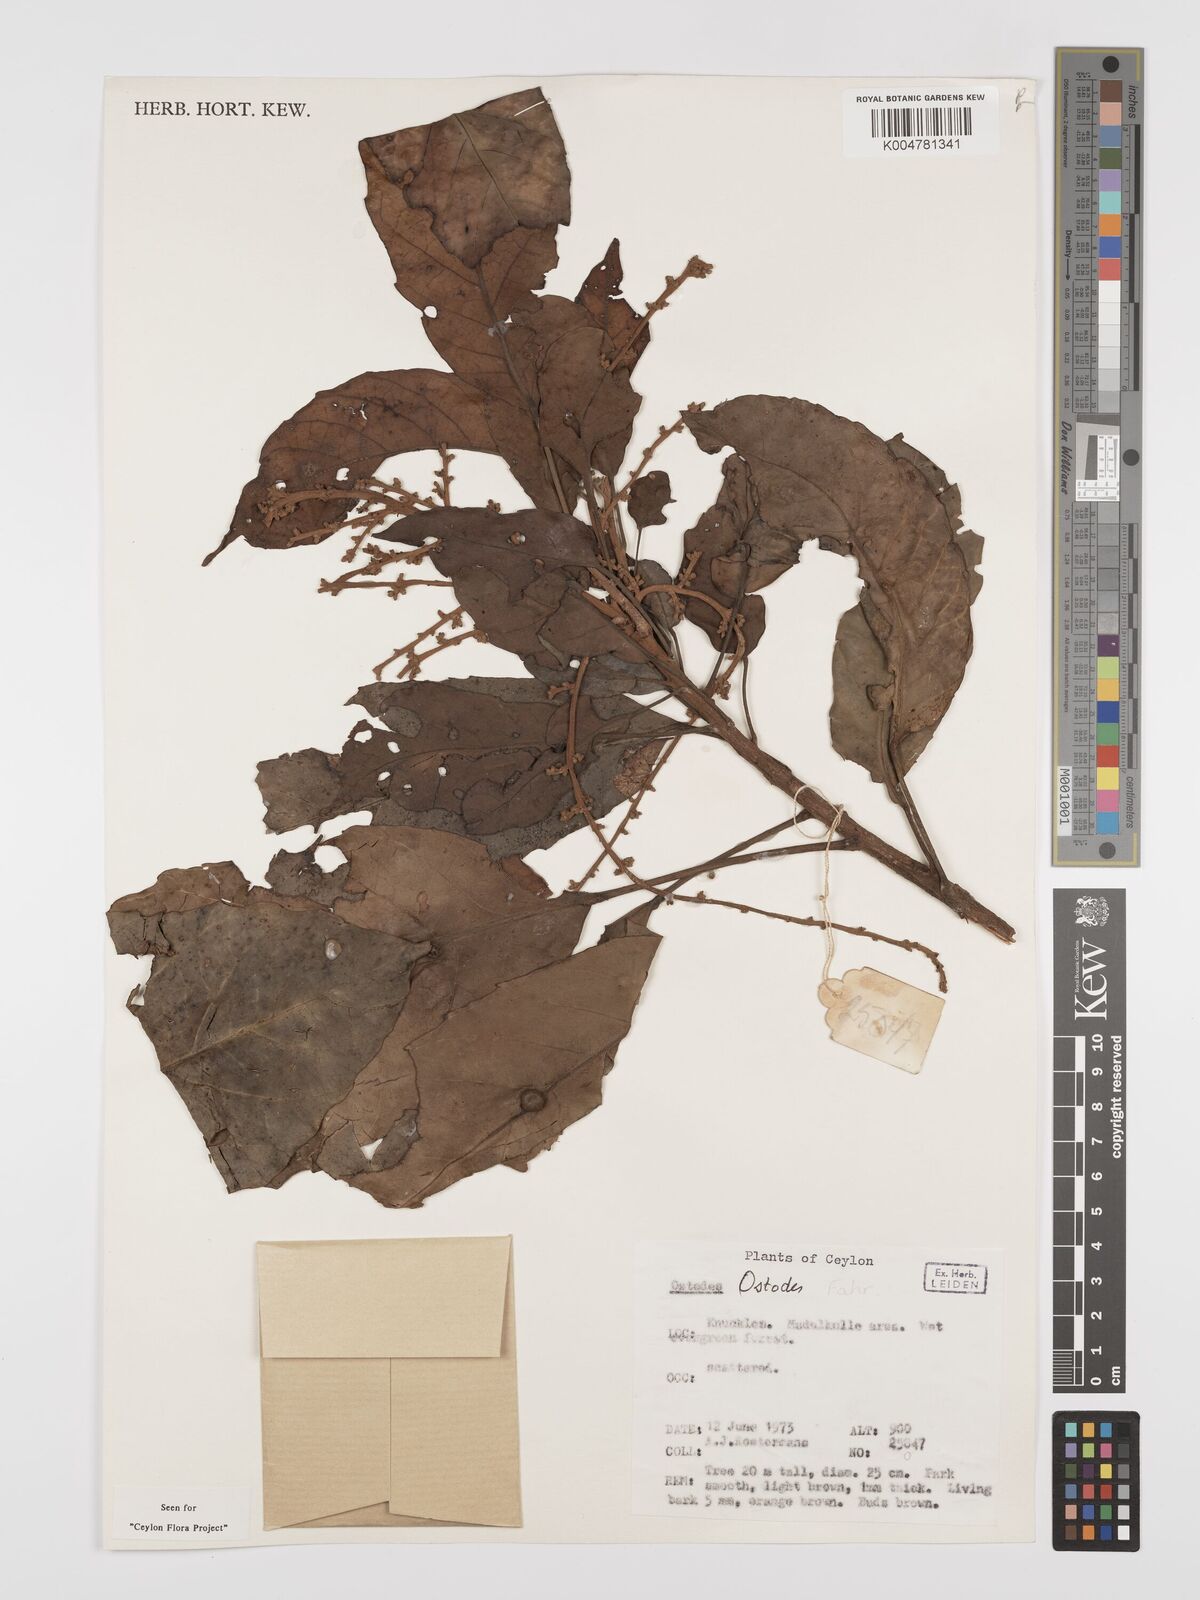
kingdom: Plantae
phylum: Tracheophyta
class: Magnoliopsida
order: Malpighiales
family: Euphorbiaceae
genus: Paracroton
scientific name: Paracroton zeylanicus
